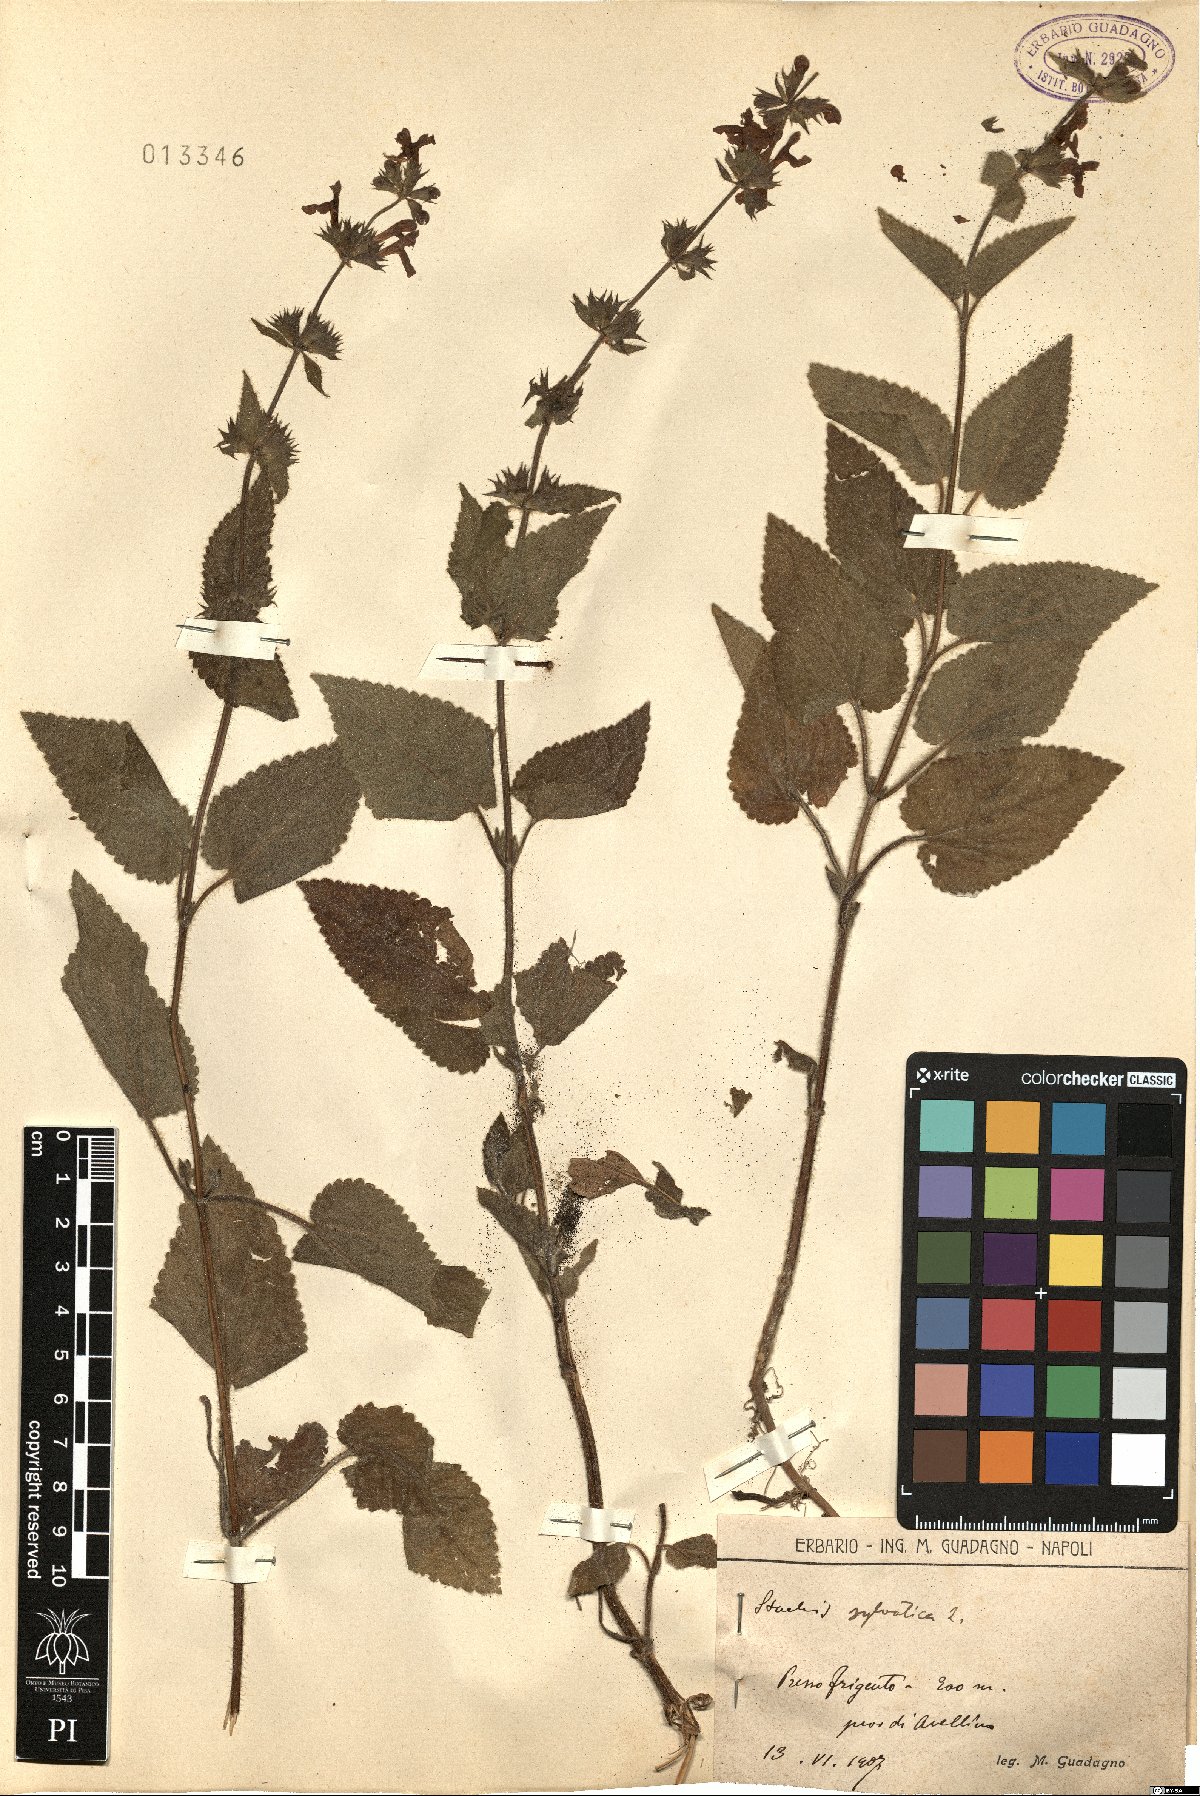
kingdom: Plantae
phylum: Tracheophyta
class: Magnoliopsida
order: Lamiales
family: Lamiaceae
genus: Stachys
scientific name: Stachys sylvatica
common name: Hedge woundwort
